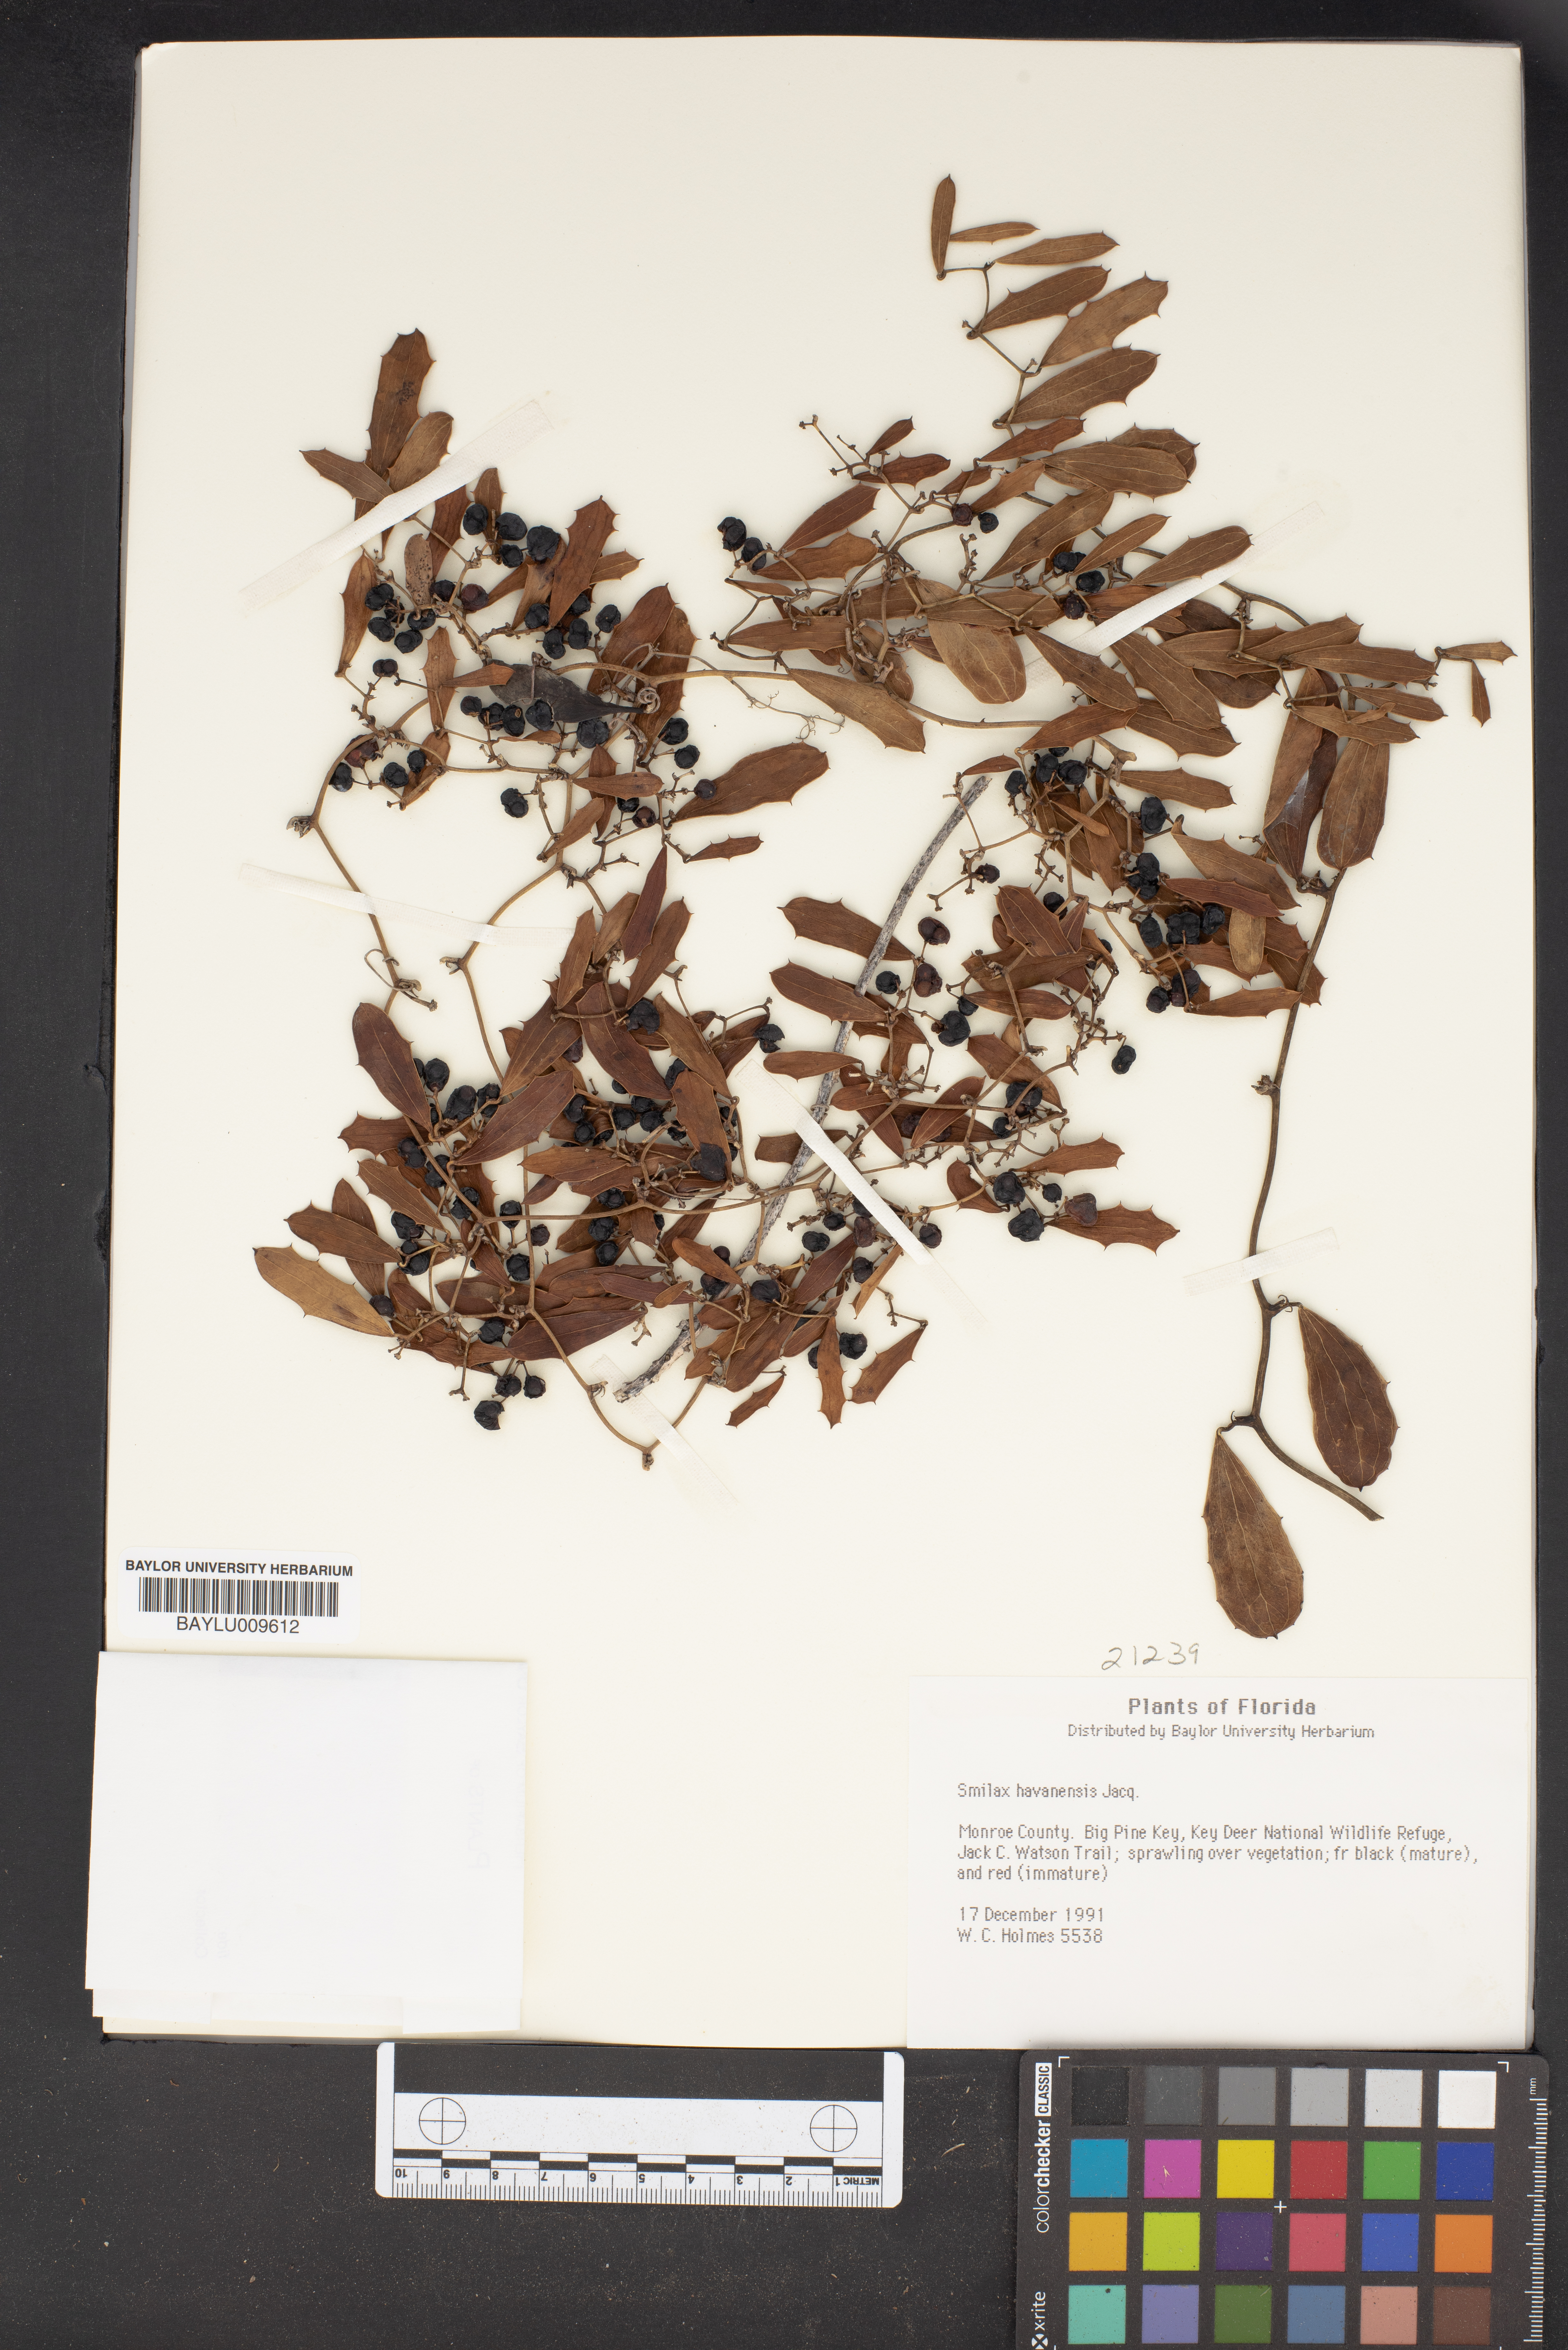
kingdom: Plantae
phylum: Tracheophyta
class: Liliopsida
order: Liliales
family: Smilacaceae
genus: Smilax
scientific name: Smilax havanensis
